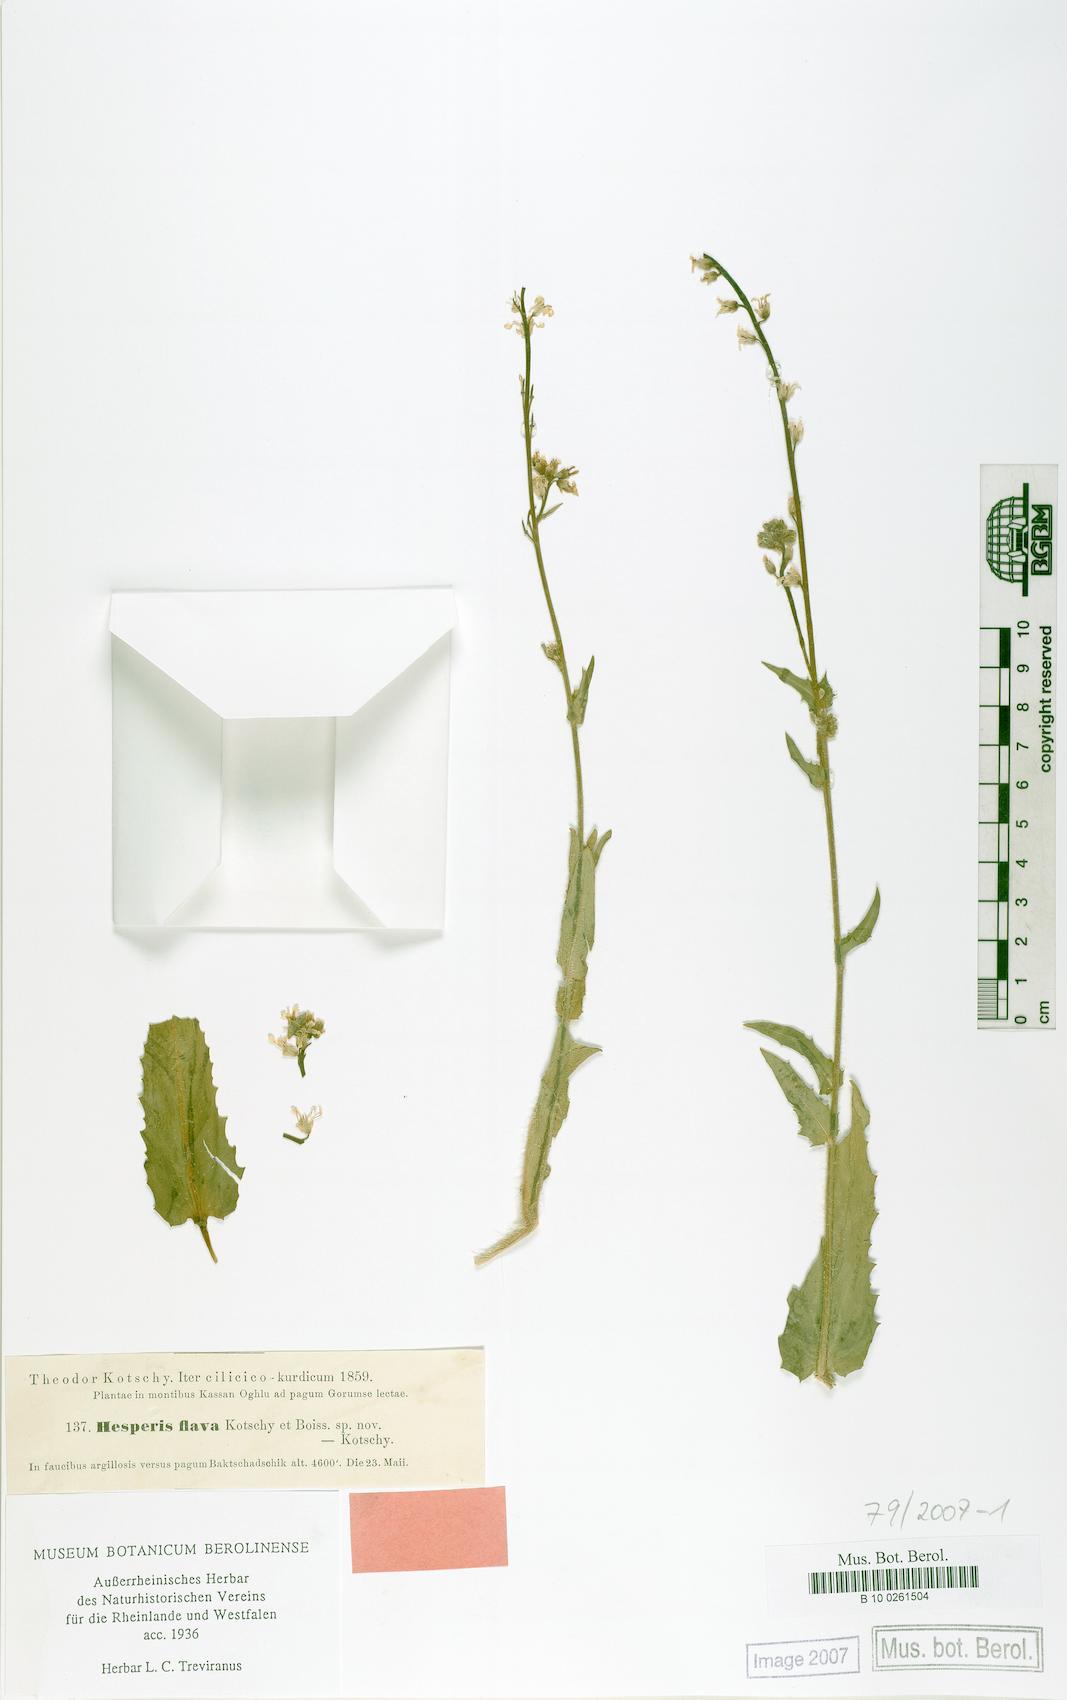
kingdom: Plantae
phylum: Tracheophyta
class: Magnoliopsida
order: Brassicales
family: Brassicaceae
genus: Hesperis
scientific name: Hesperis dvorakii
